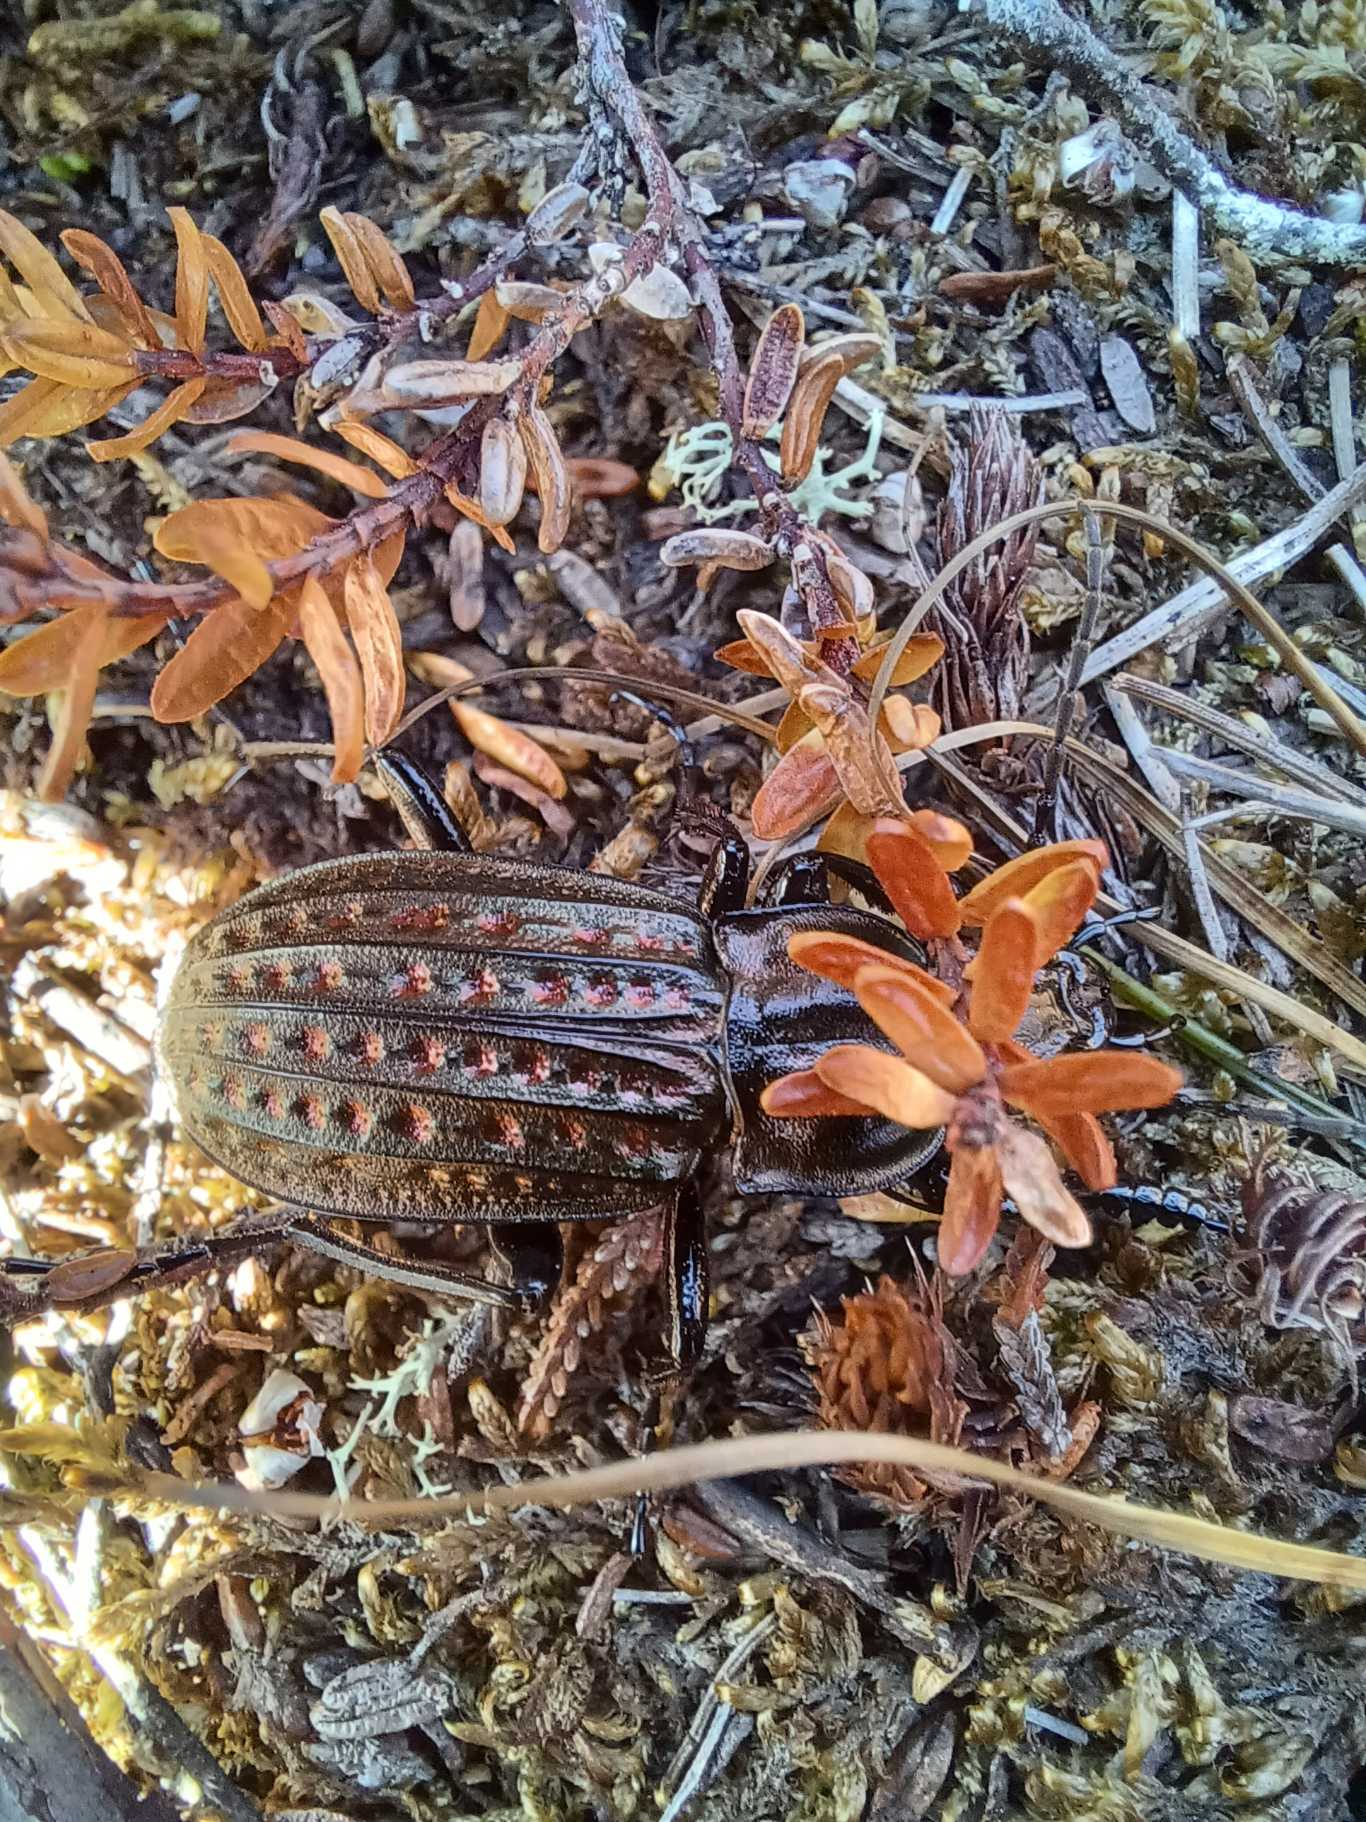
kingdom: Animalia
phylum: Arthropoda
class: Insecta
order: Coleoptera
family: Carabidae
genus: Carabus
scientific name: Carabus clatratus
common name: Dyndløber
